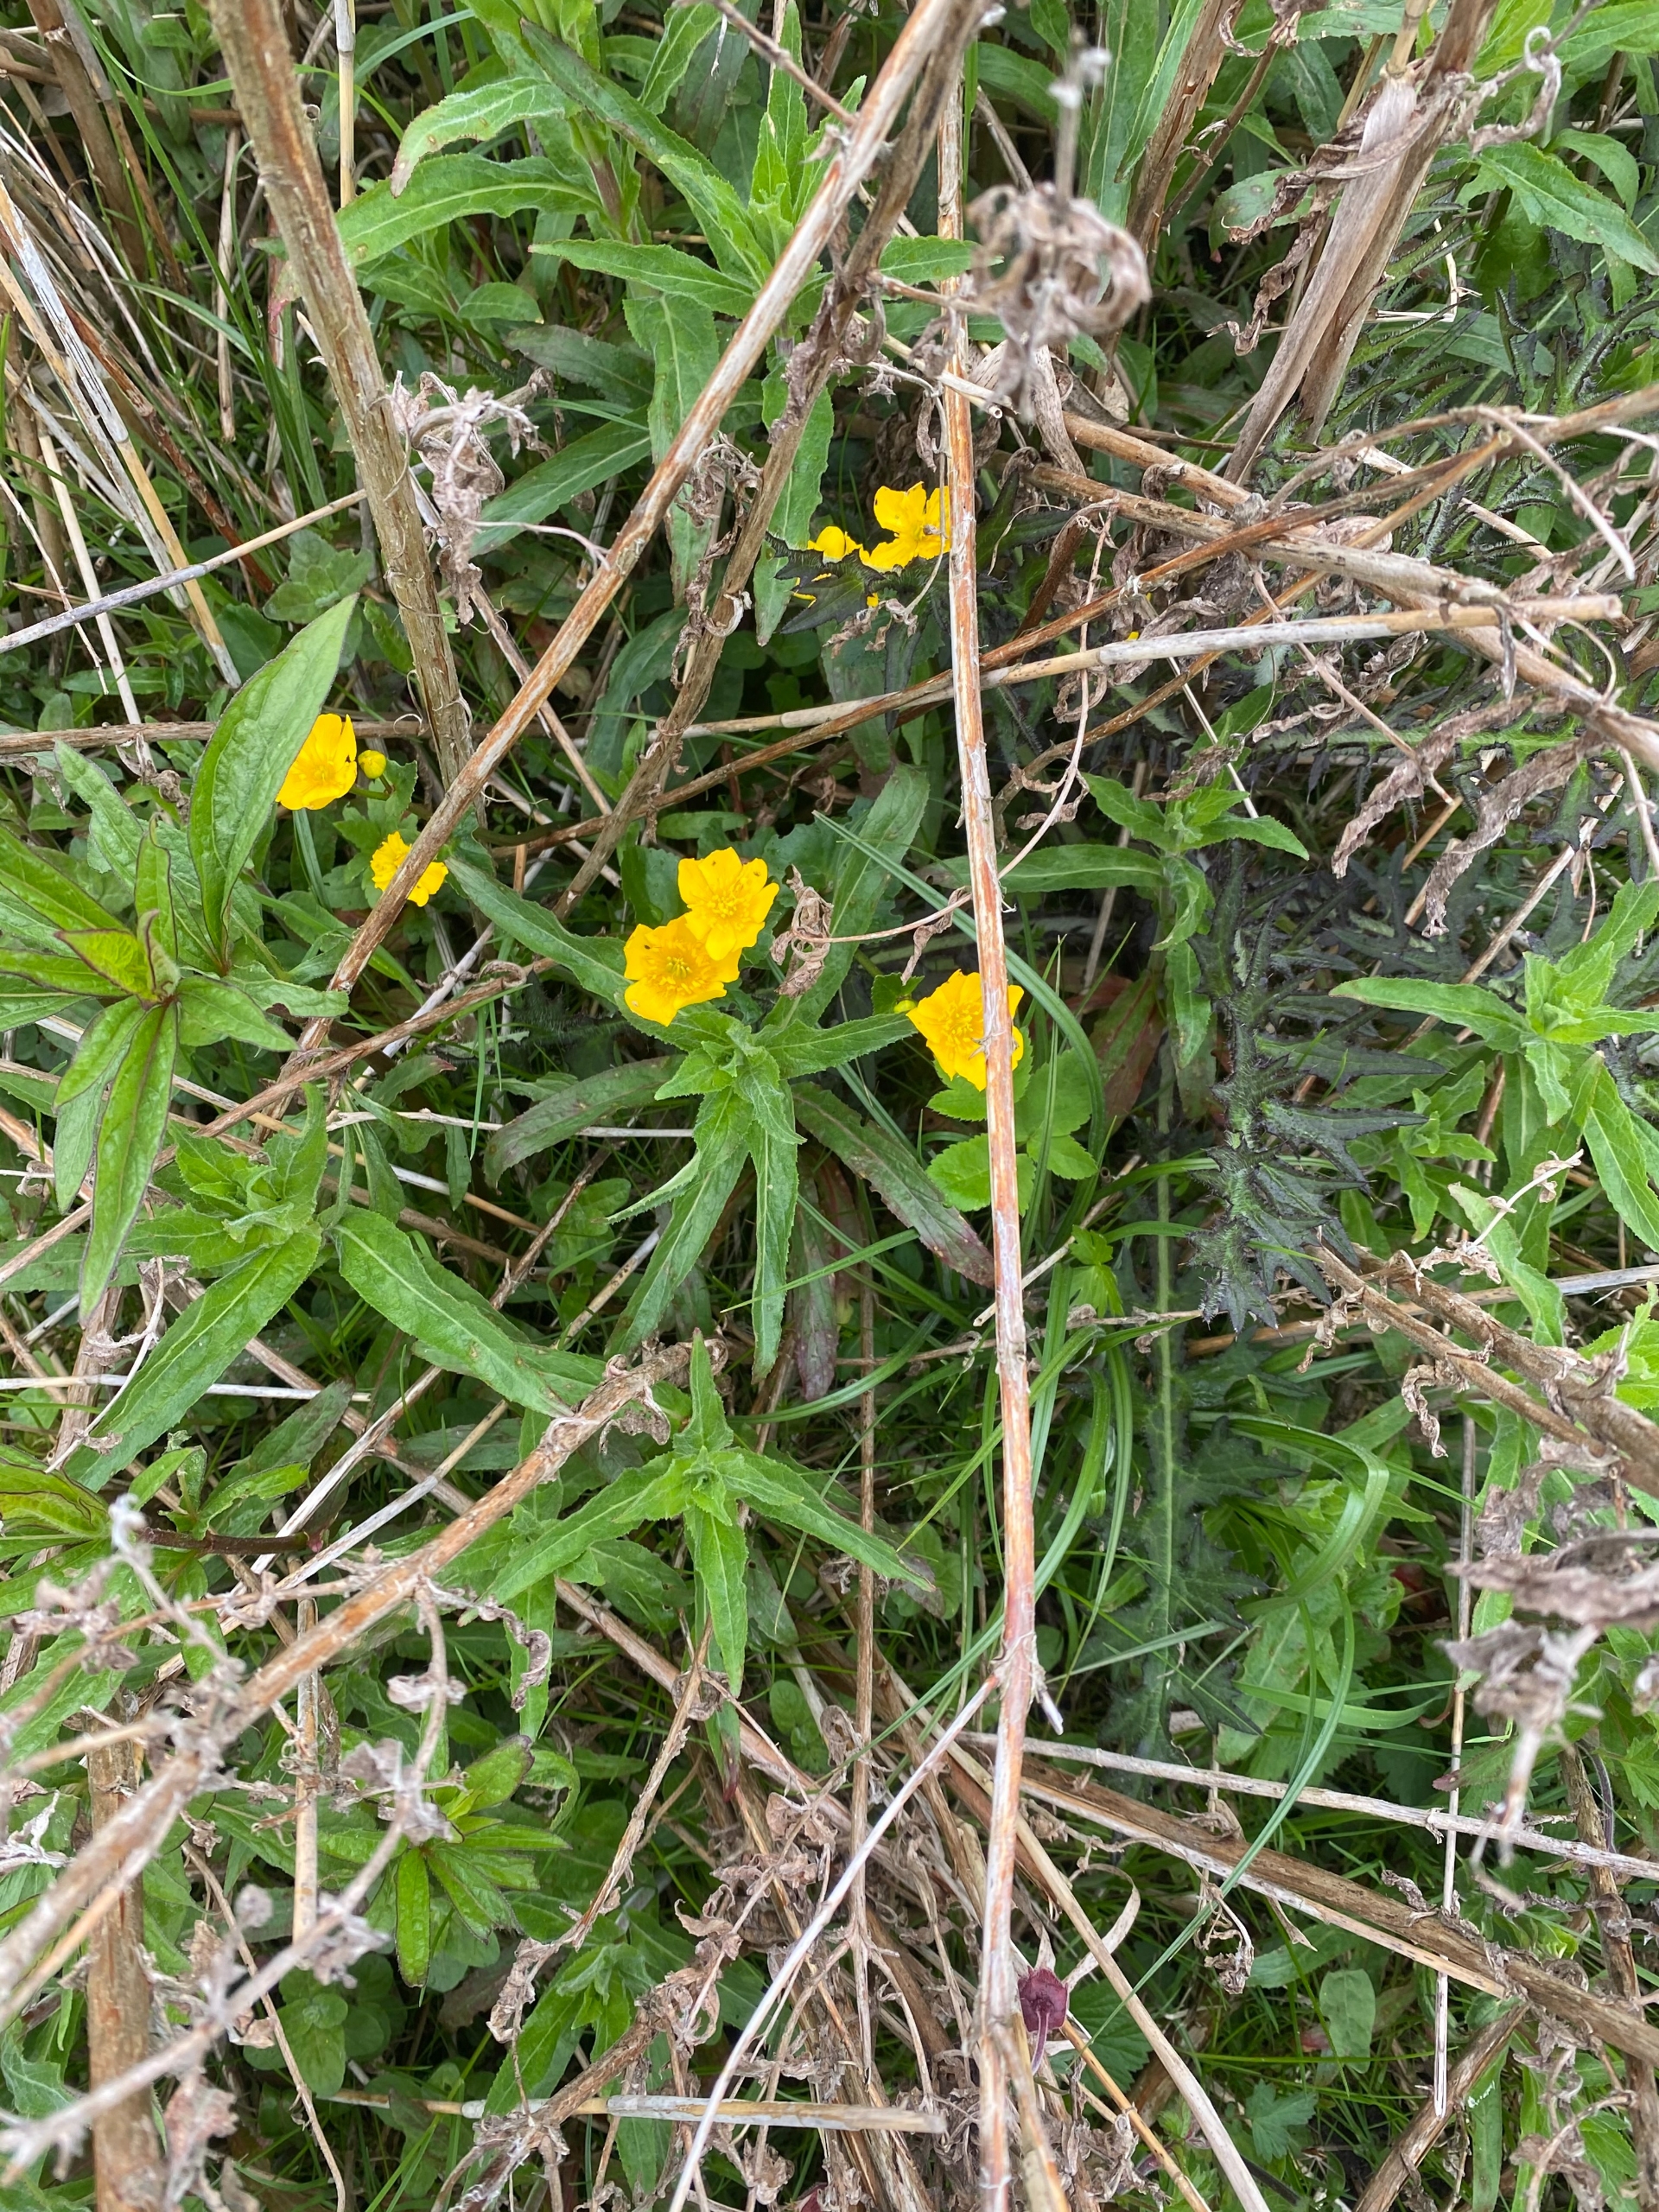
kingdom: Plantae
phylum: Tracheophyta
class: Magnoliopsida
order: Ranunculales
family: Ranunculaceae
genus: Caltha
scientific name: Caltha palustris
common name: Eng-kabbeleje
